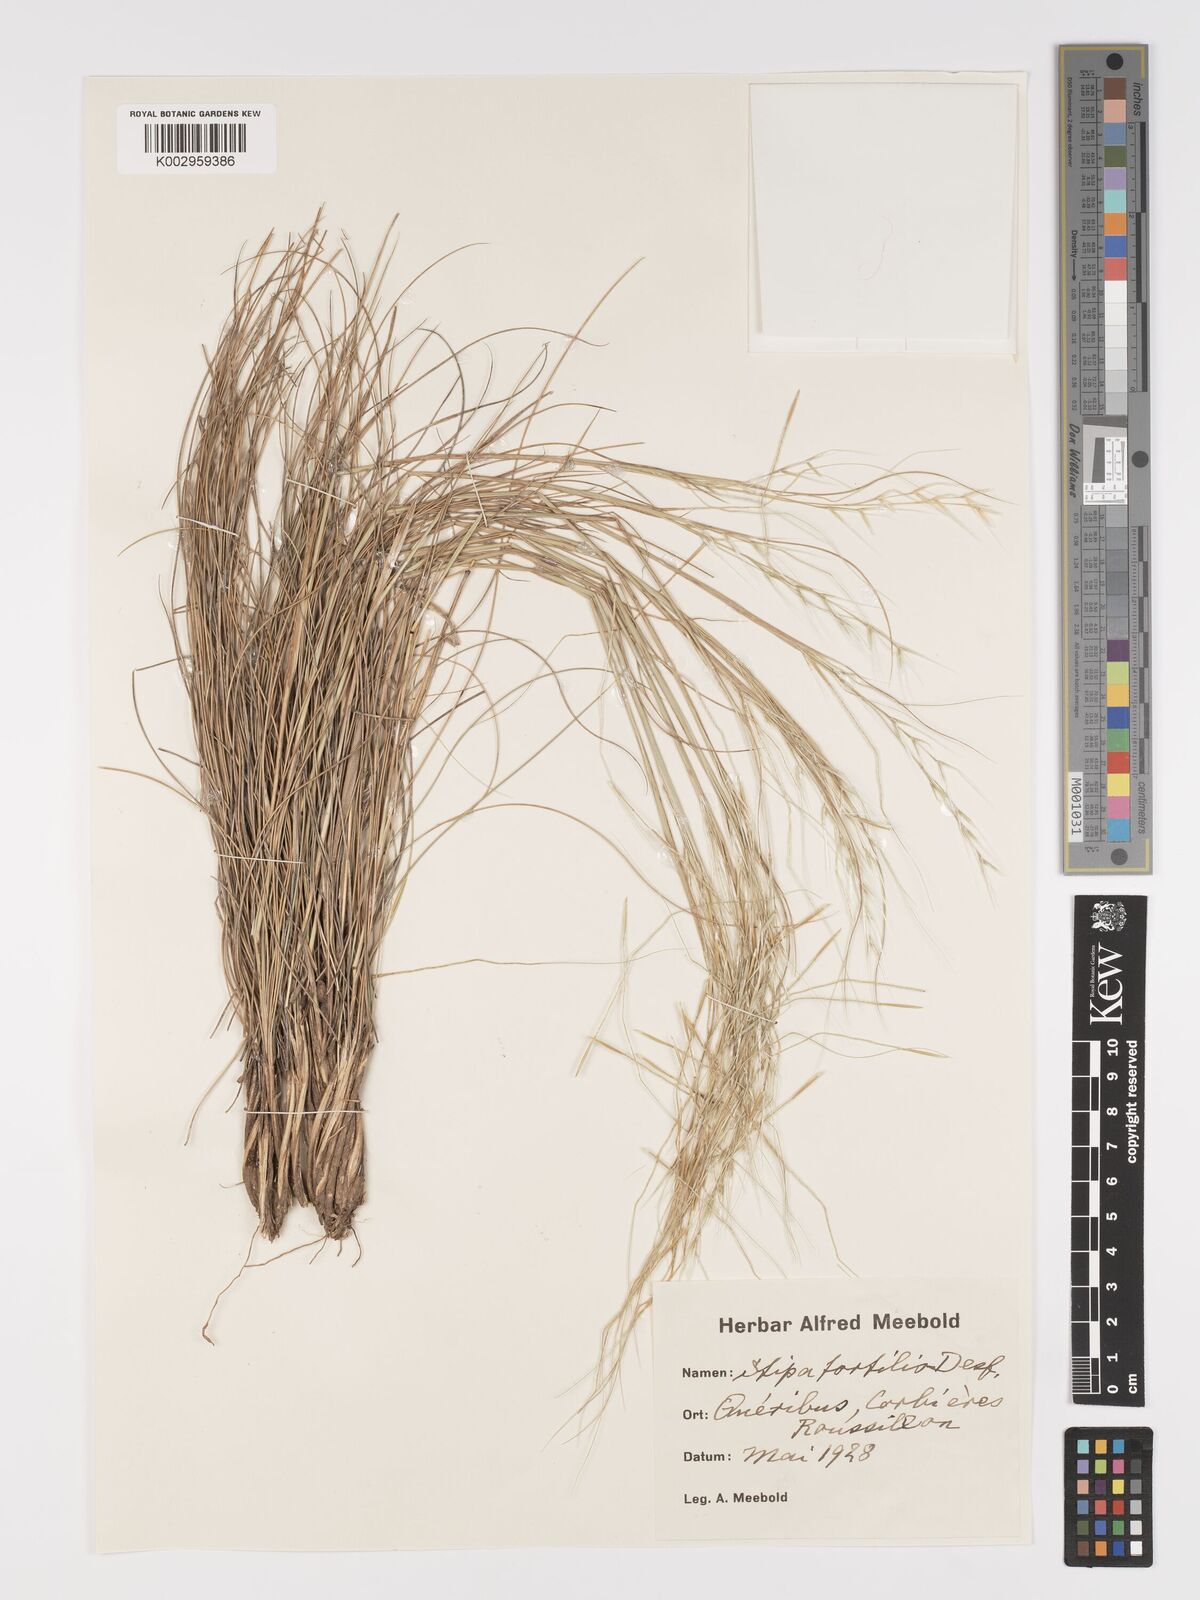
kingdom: Plantae
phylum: Tracheophyta
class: Liliopsida
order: Poales
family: Poaceae
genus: Stipellula
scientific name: Stipellula capensis
